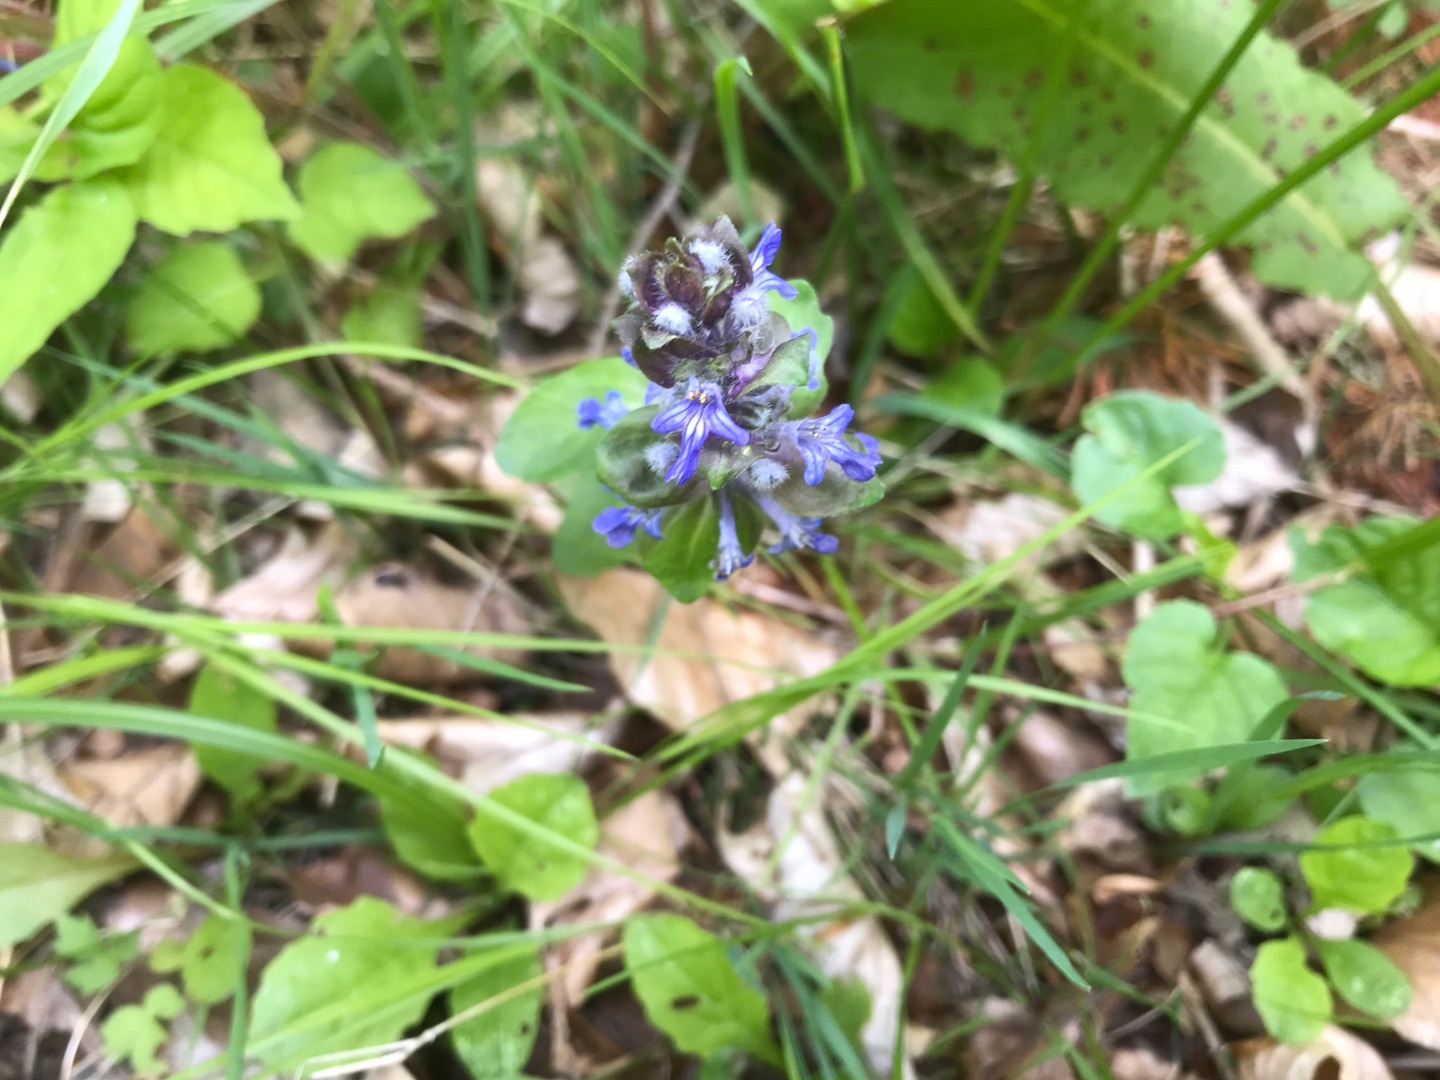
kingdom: Plantae
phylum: Tracheophyta
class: Magnoliopsida
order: Lamiales
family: Lamiaceae
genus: Ajuga
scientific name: Ajuga reptans
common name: Krybende læbeløs
